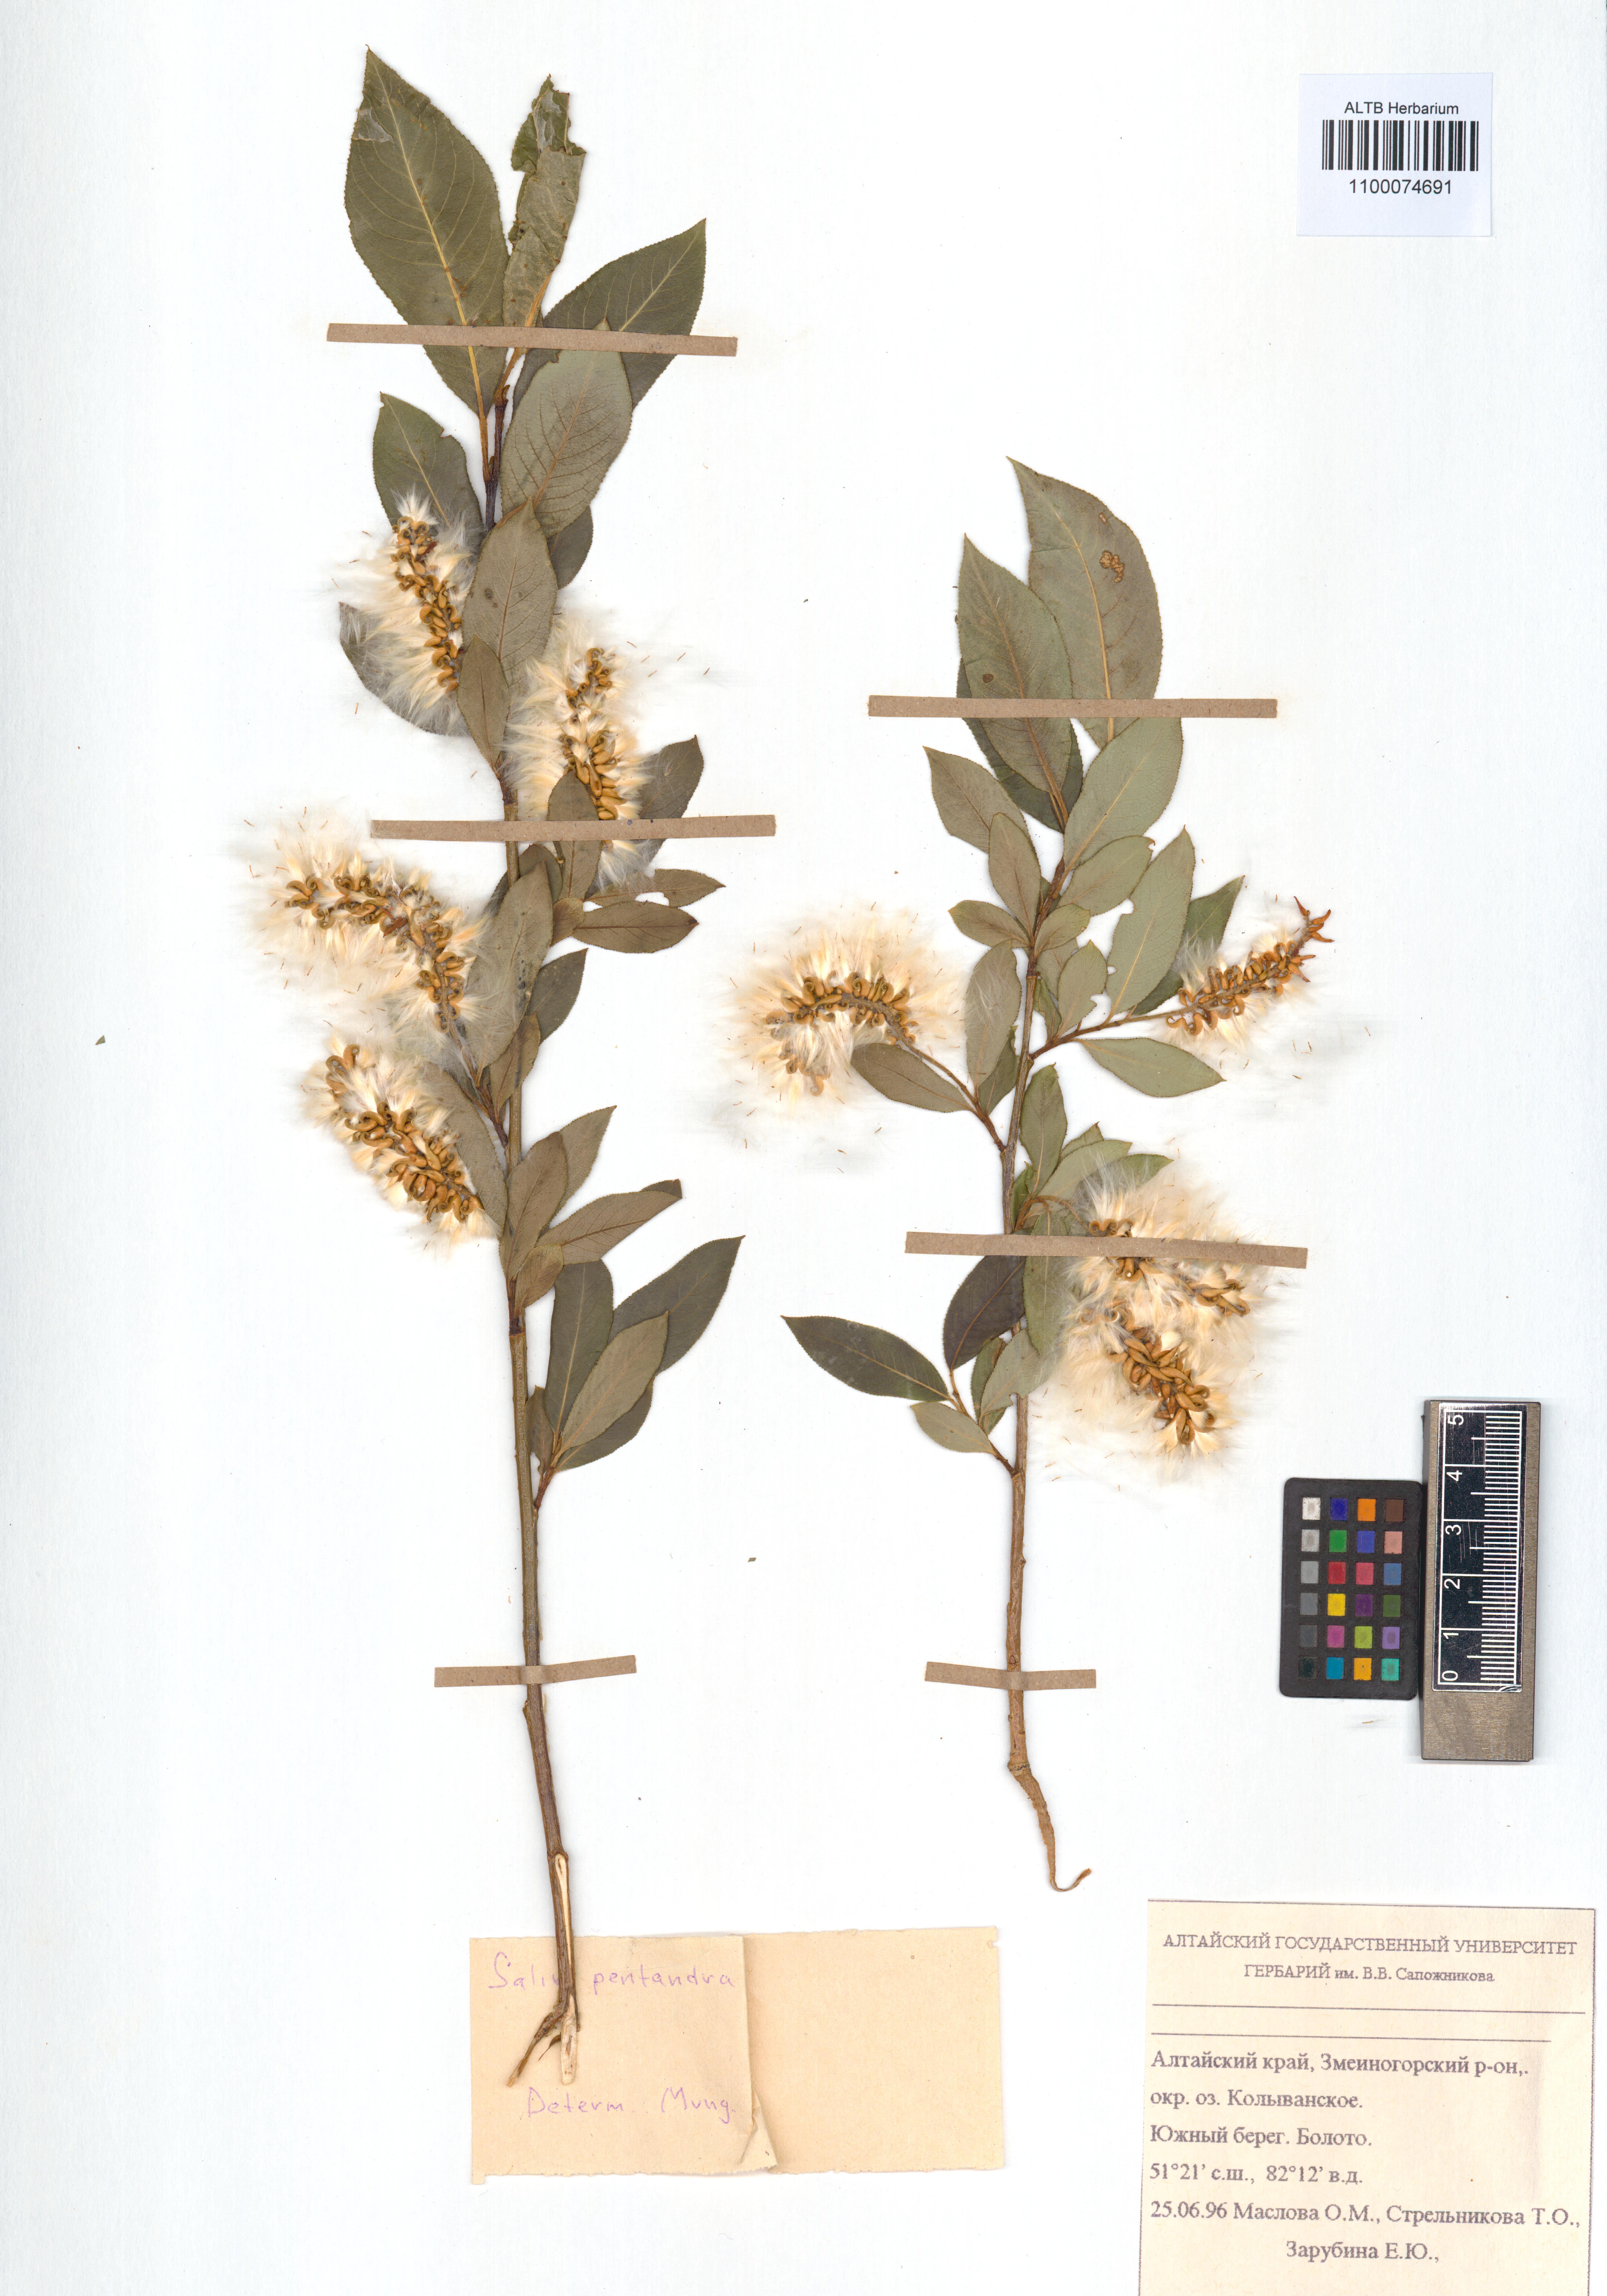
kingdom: Plantae
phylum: Tracheophyta
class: Magnoliopsida
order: Malpighiales
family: Salicaceae
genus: Salix
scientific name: Salix pentandra
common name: Bay willow
